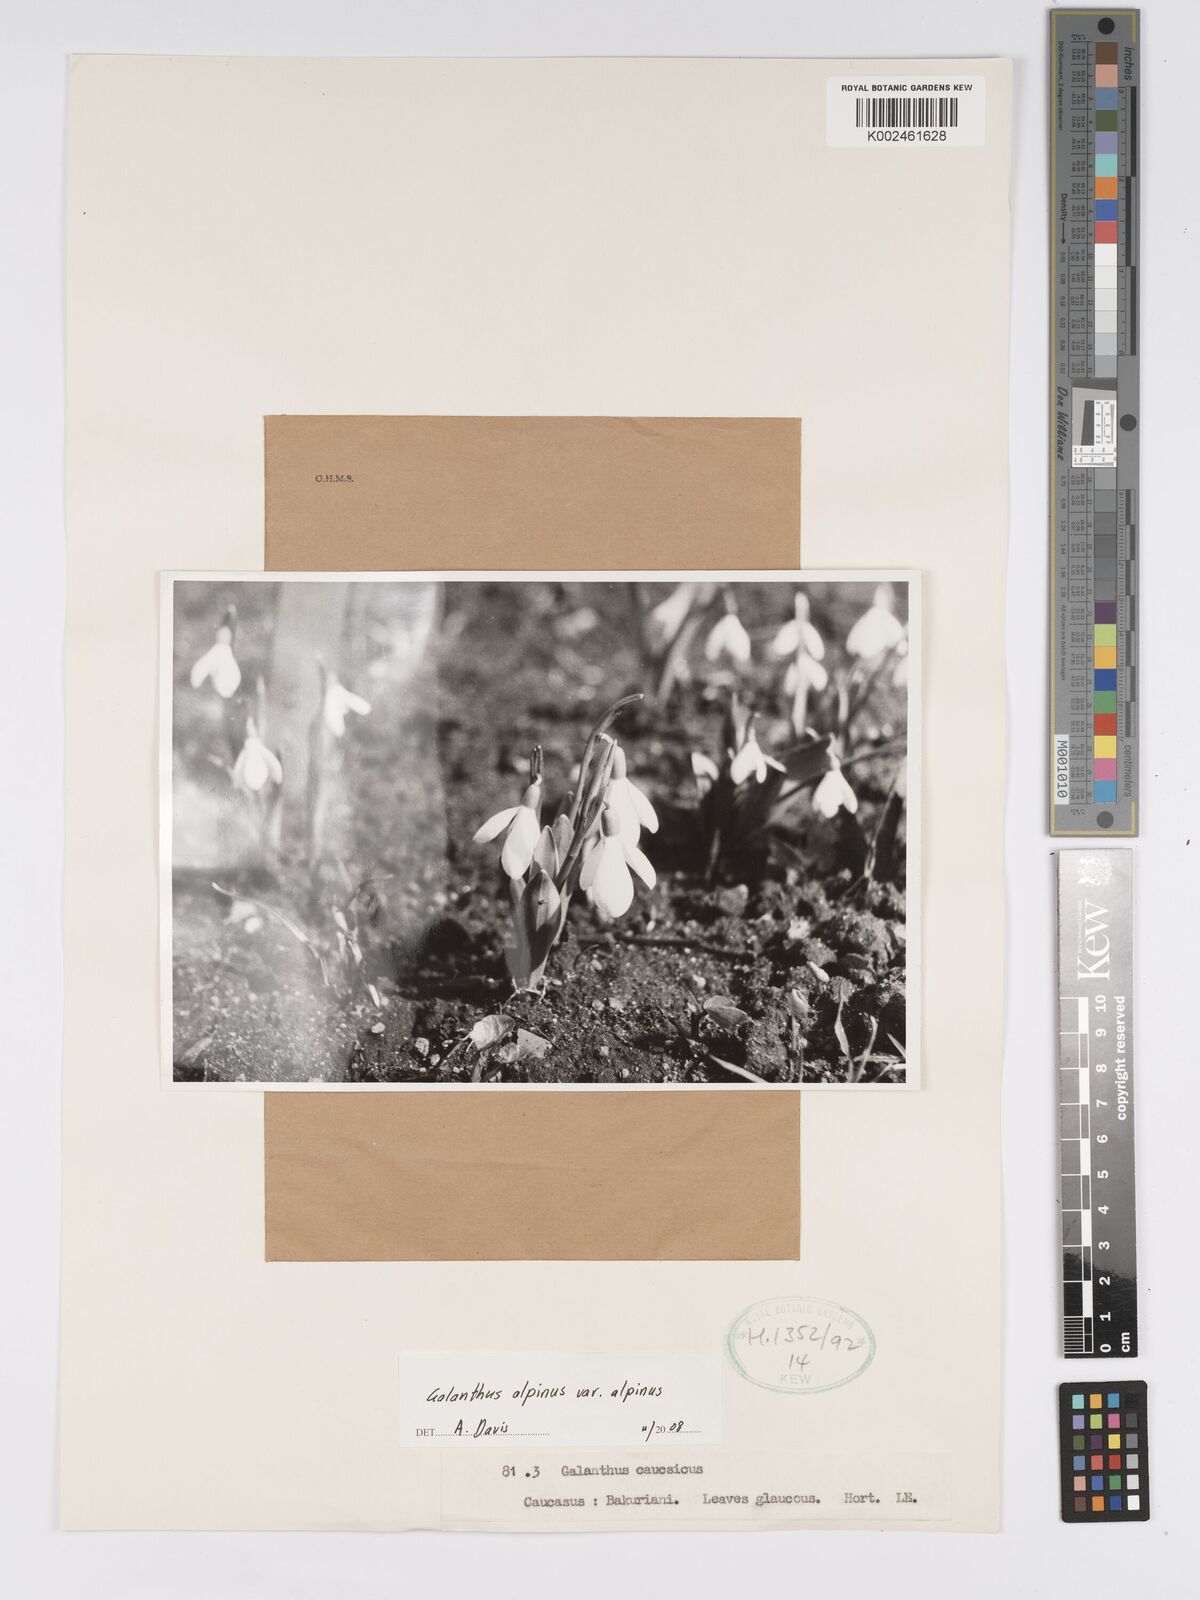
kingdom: Plantae
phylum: Tracheophyta
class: Liliopsida
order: Asparagales
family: Amaryllidaceae
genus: Galanthus
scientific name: Galanthus alpinus
